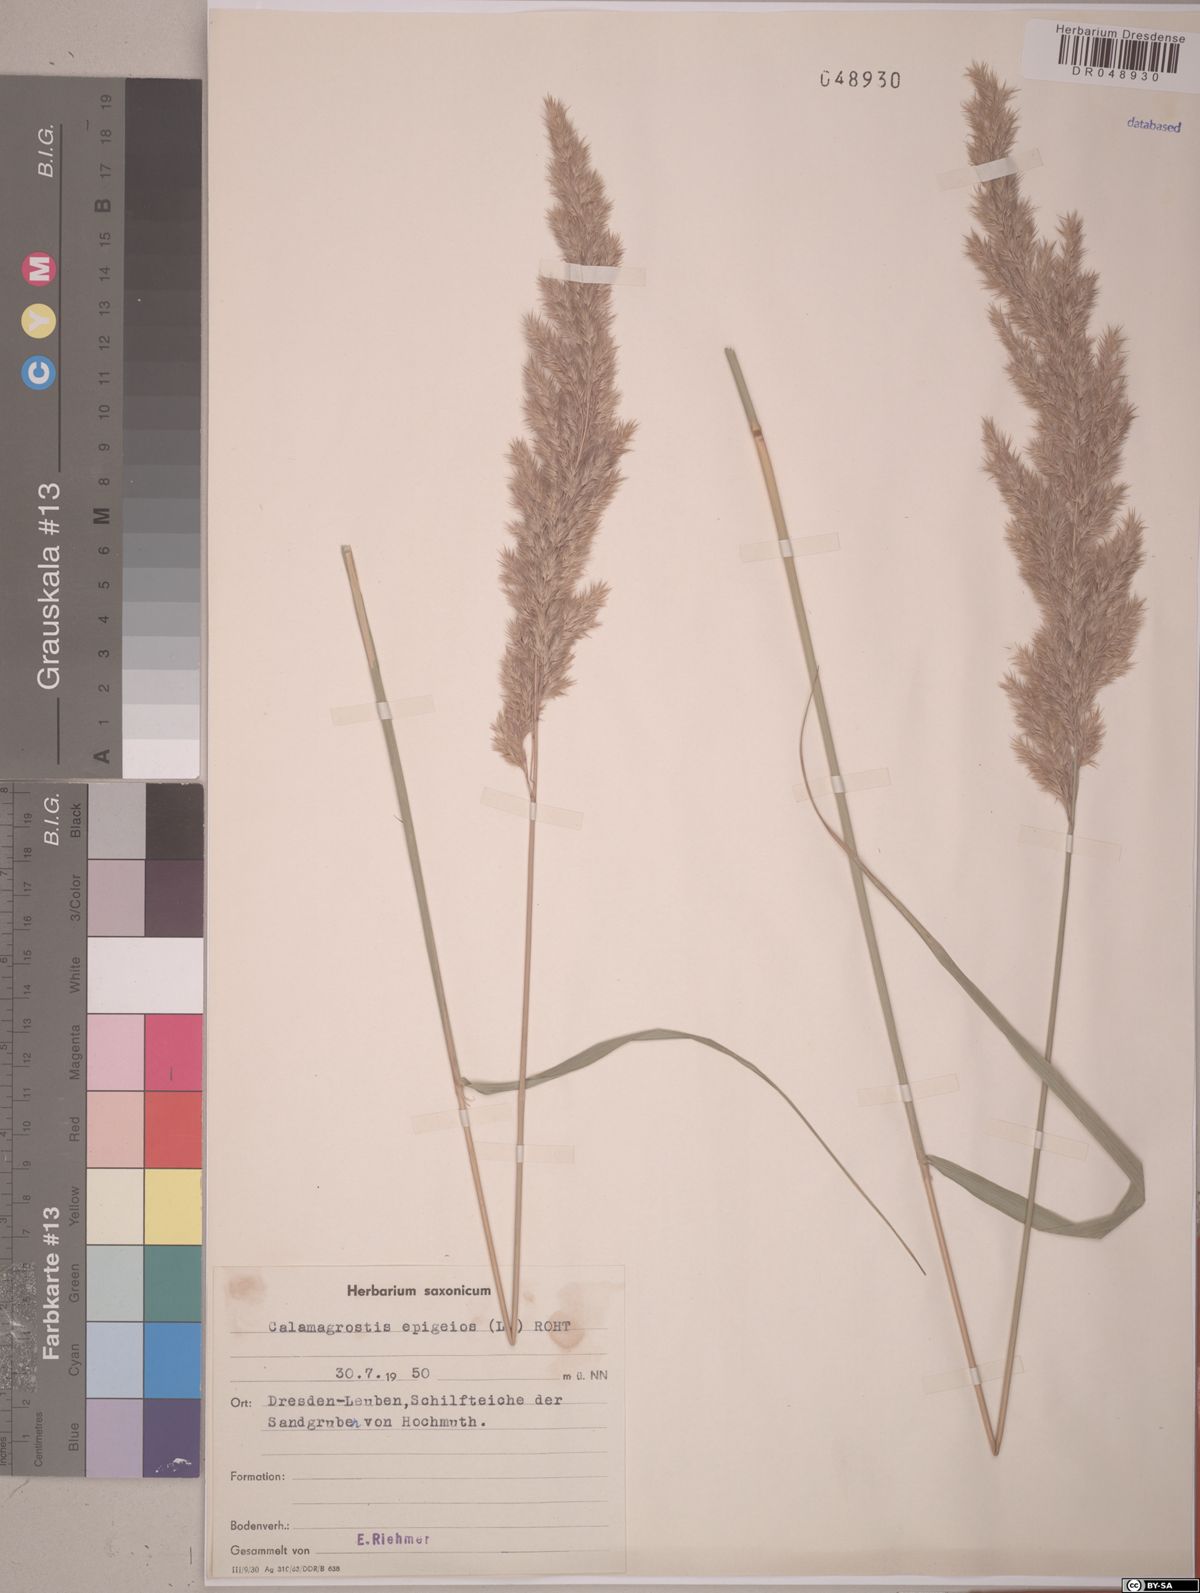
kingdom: Plantae
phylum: Tracheophyta
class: Liliopsida
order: Poales
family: Poaceae
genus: Calamagrostis
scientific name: Calamagrostis epigejos
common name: Wood small-reed
